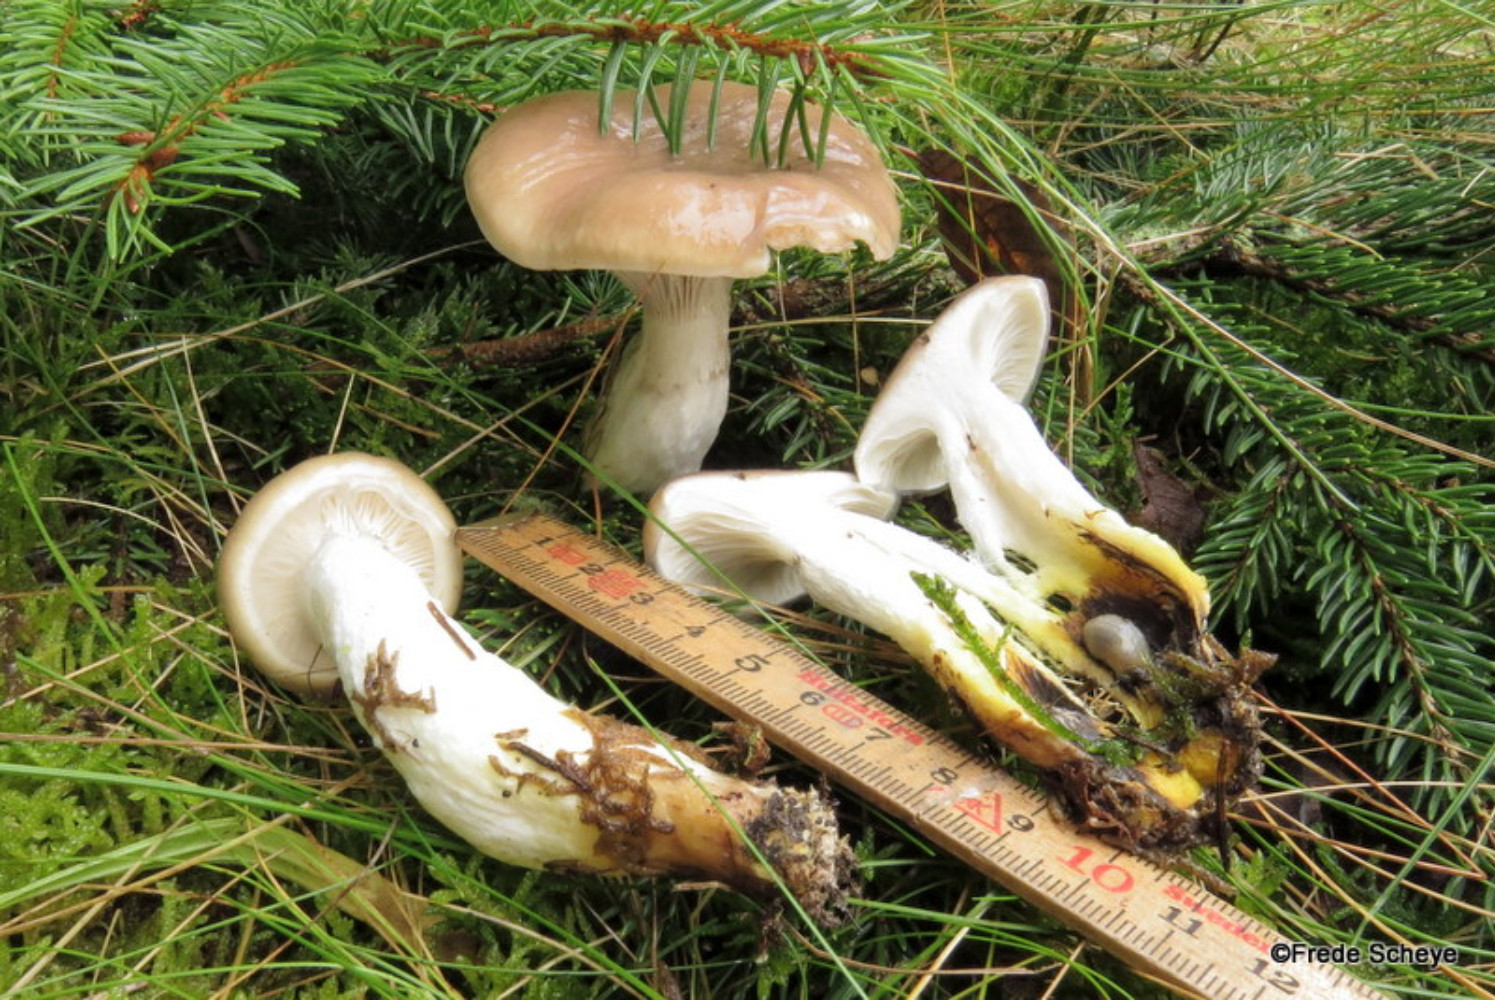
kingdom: Fungi
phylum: Basidiomycota
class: Agaricomycetes
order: Boletales
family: Gomphidiaceae
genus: Gomphidius
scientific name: Gomphidius glutinosus
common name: grå slimslør
